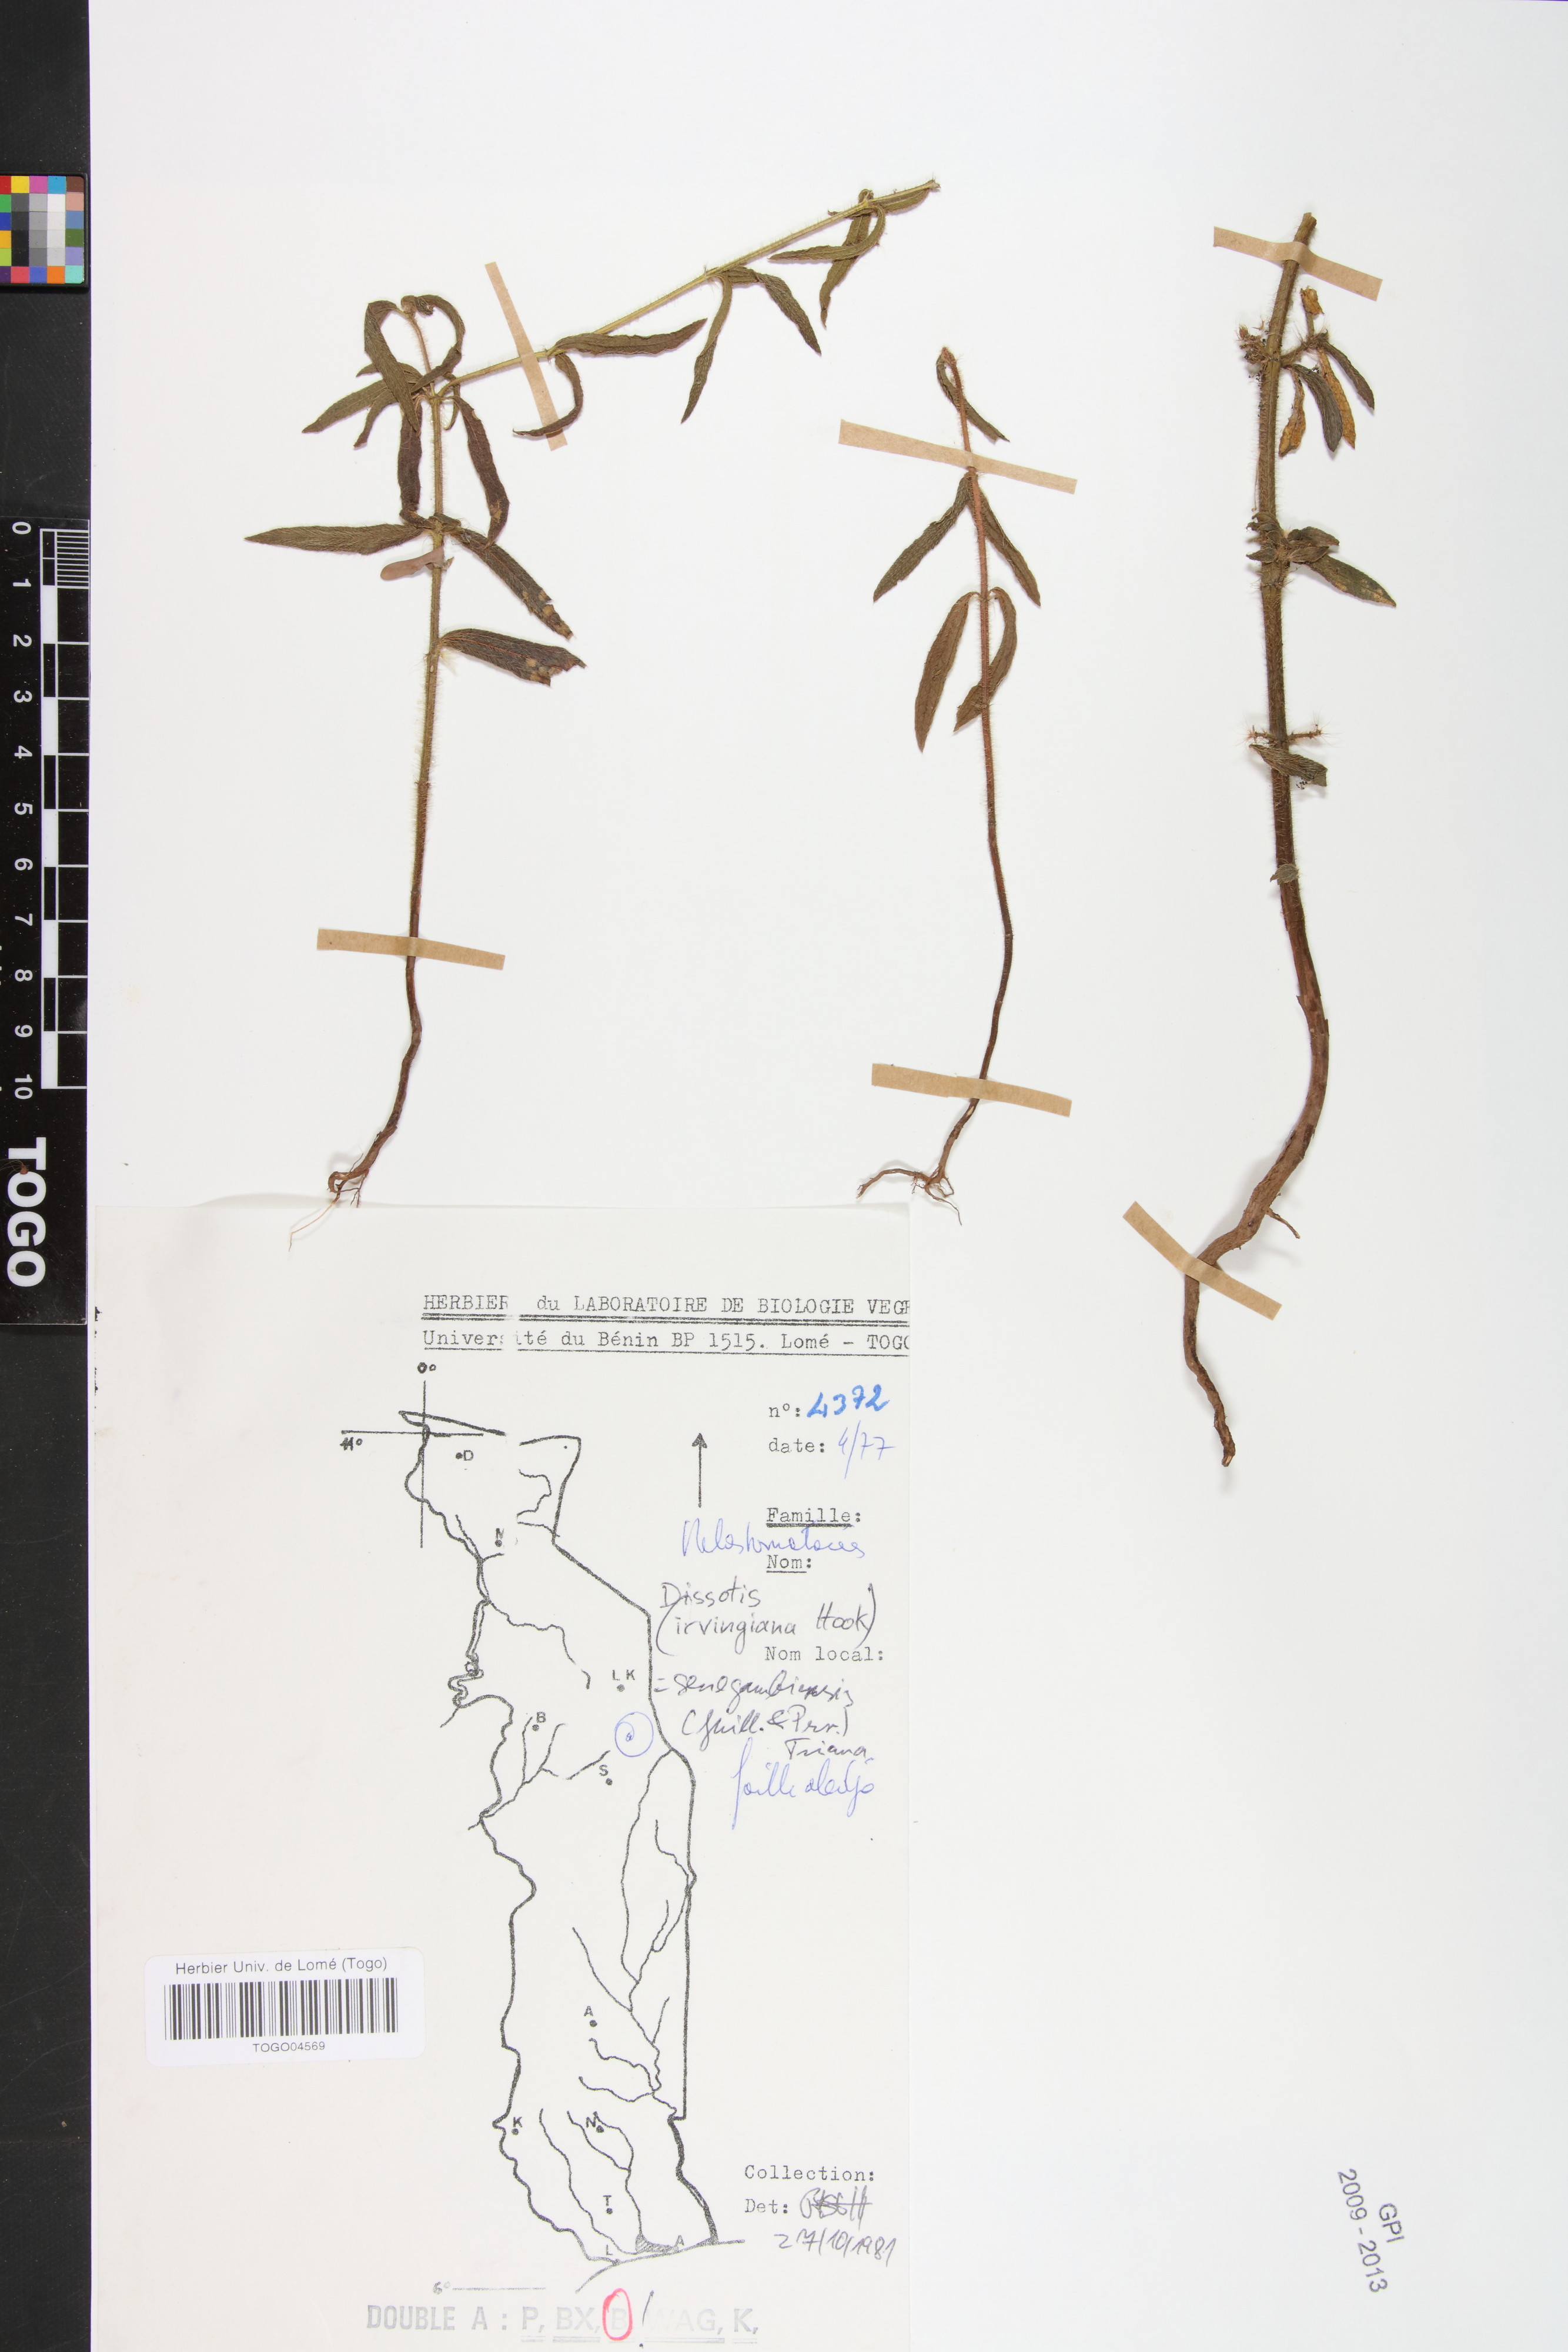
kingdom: Plantae
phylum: Tracheophyta
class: Magnoliopsida
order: Myrtales
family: Melastomataceae
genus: Antherotoma
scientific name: Antherotoma irvingiana
